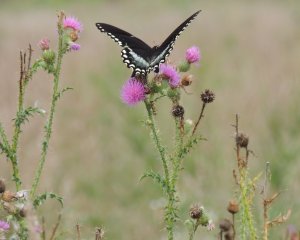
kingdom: Animalia
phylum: Arthropoda
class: Insecta
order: Lepidoptera
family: Papilionidae
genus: Pterourus
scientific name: Pterourus troilus
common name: Spicebush Swallowtail
